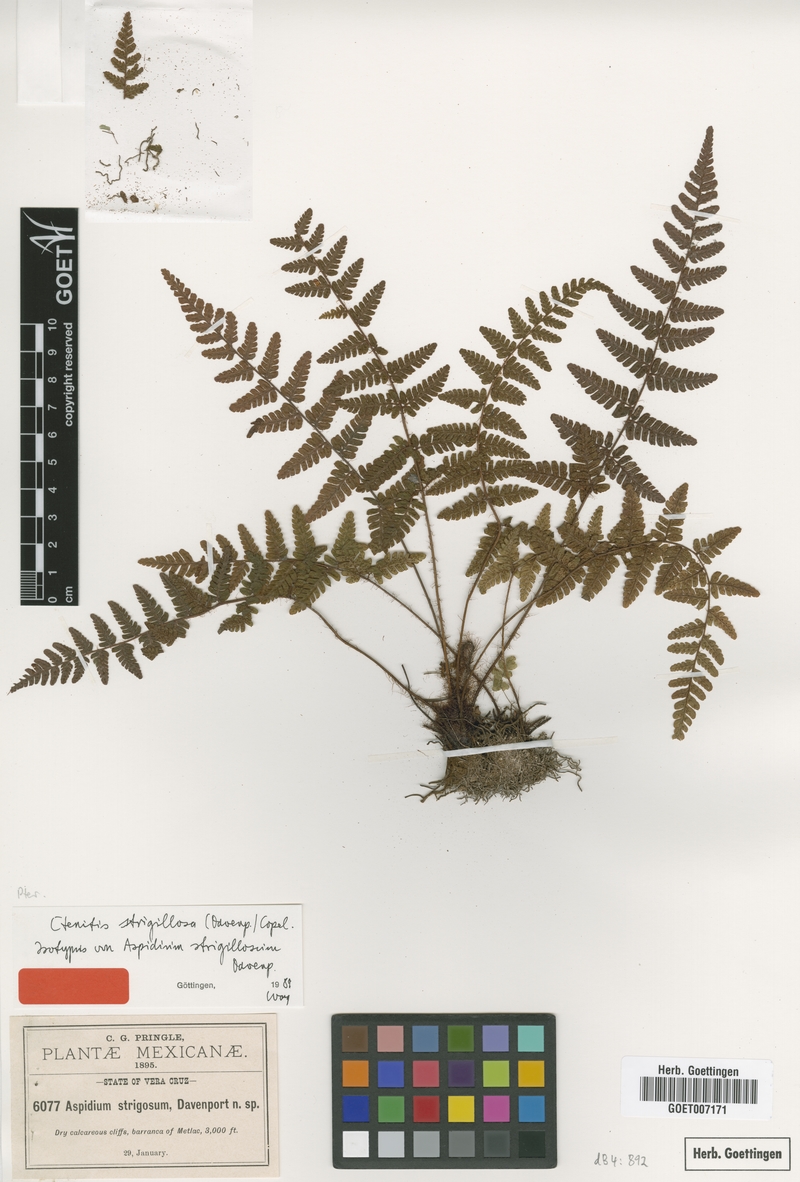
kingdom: Plantae
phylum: Tracheophyta
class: Polypodiopsida
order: Polypodiales
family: Dryopteridaceae
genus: Ctenitis
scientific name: Ctenitis strigilosa
